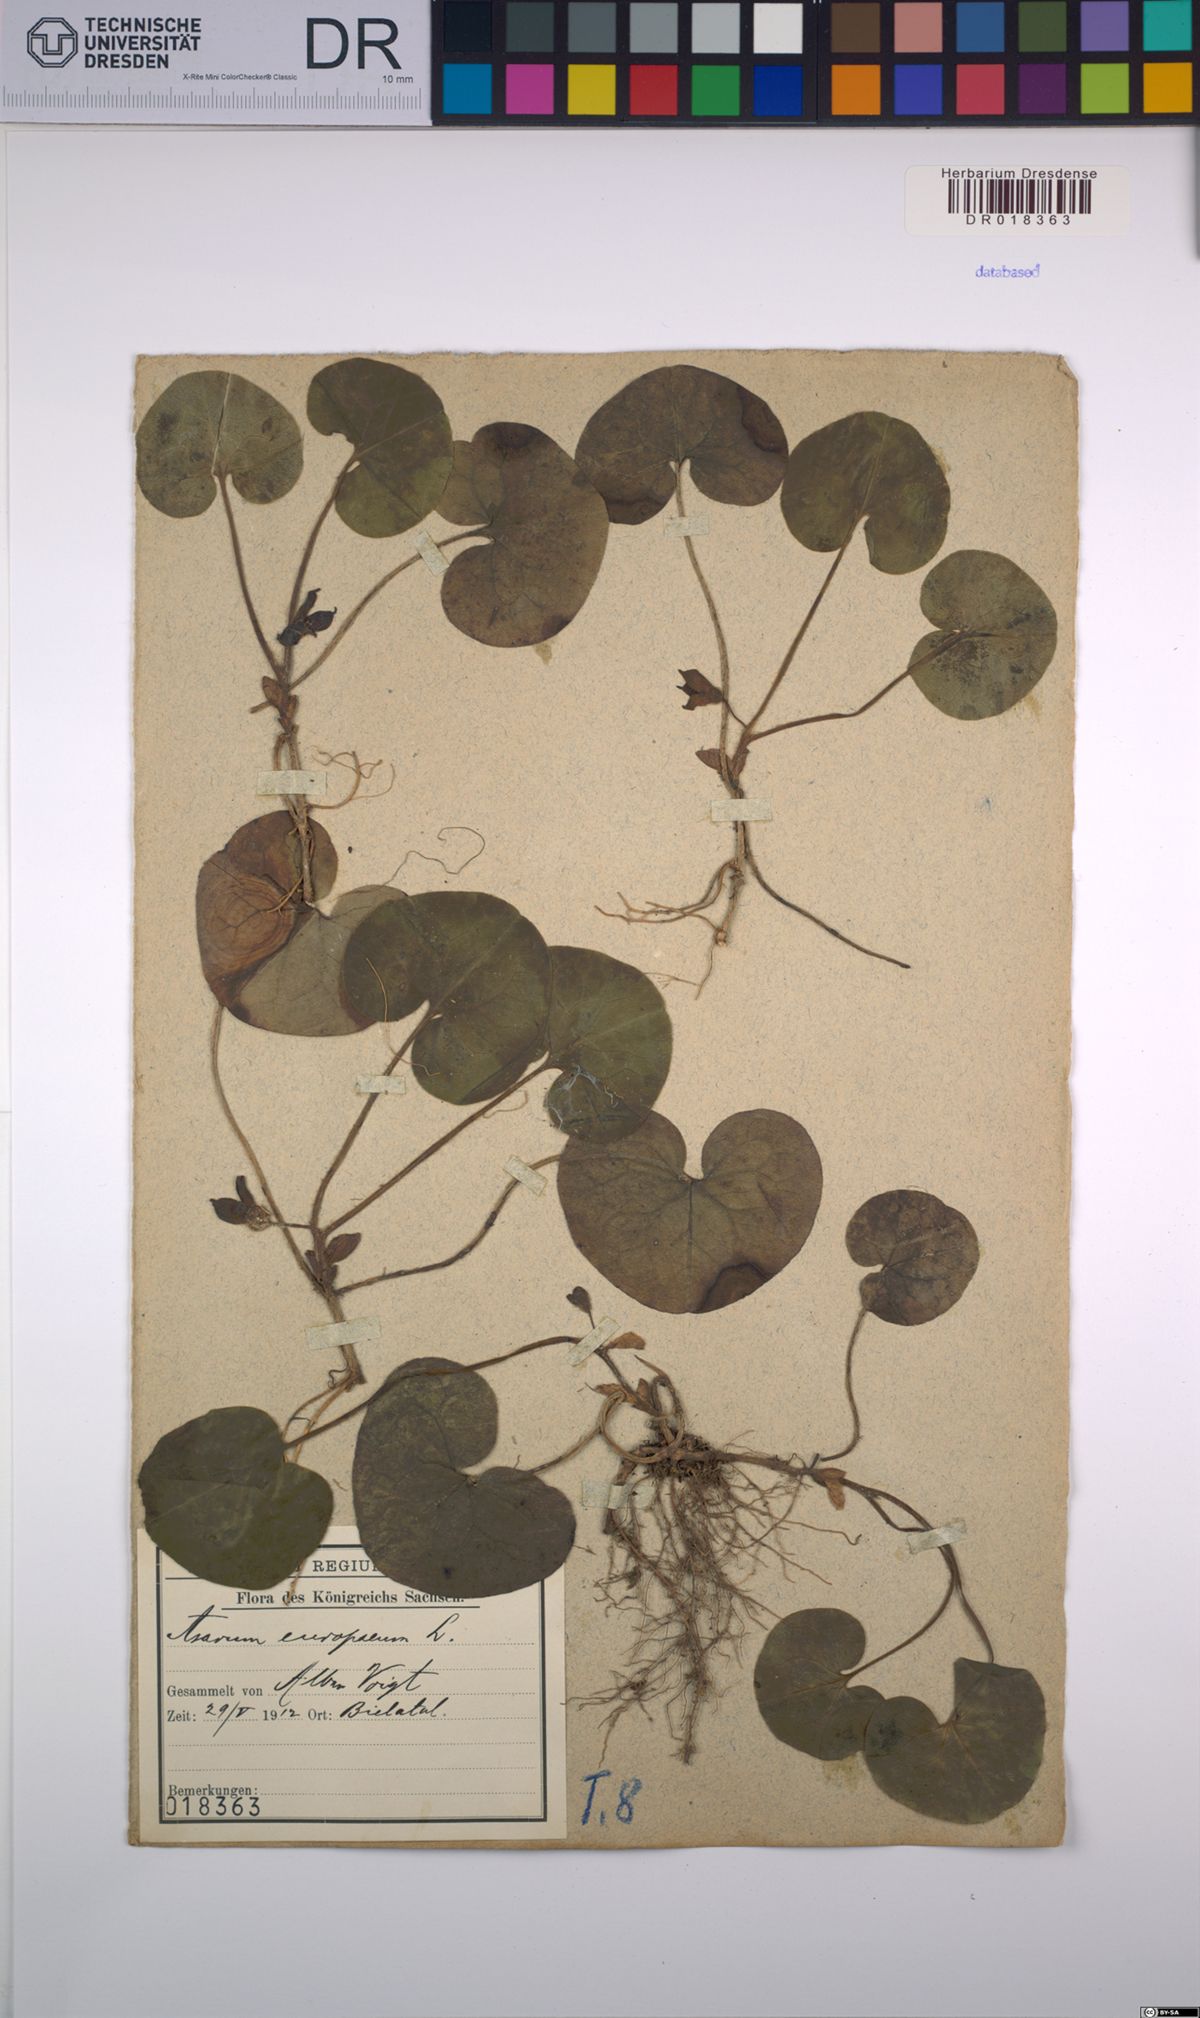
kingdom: Plantae
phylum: Tracheophyta
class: Magnoliopsida
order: Piperales
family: Aristolochiaceae
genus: Asarum
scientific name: Asarum europaeum
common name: Asarabacca
